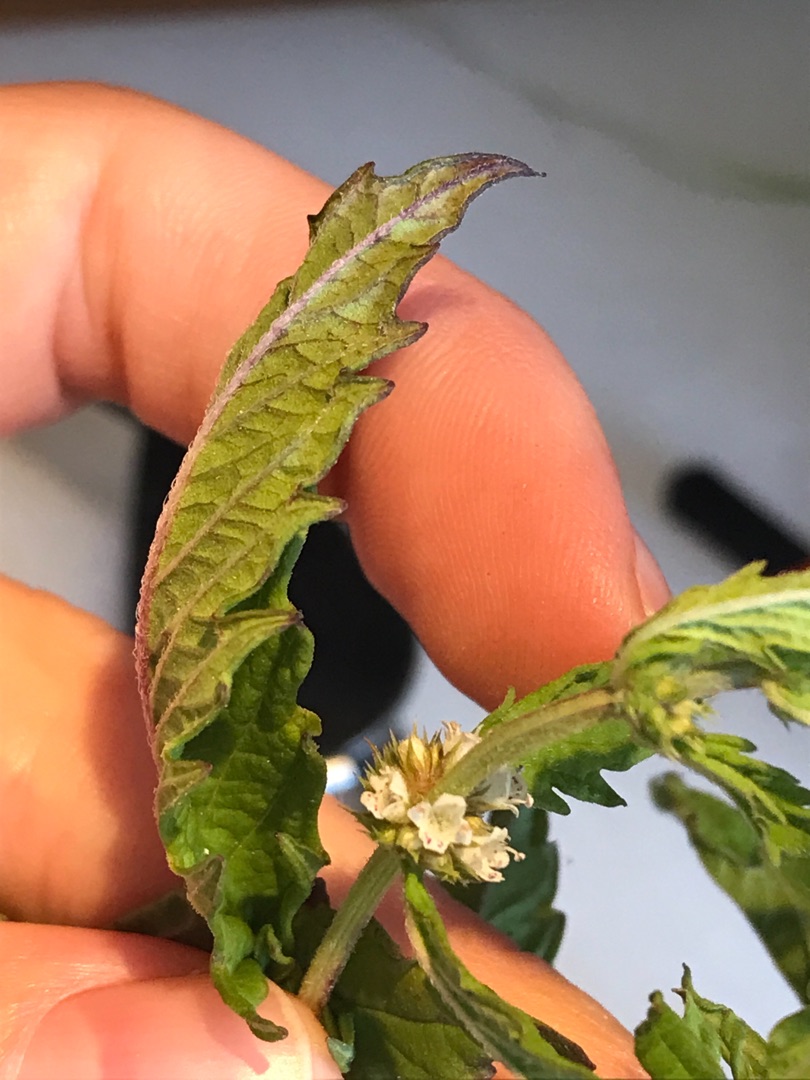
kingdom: Plantae
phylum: Tracheophyta
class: Magnoliopsida
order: Lamiales
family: Lamiaceae
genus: Lycopus
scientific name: Lycopus europaeus
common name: Sværtevæld
